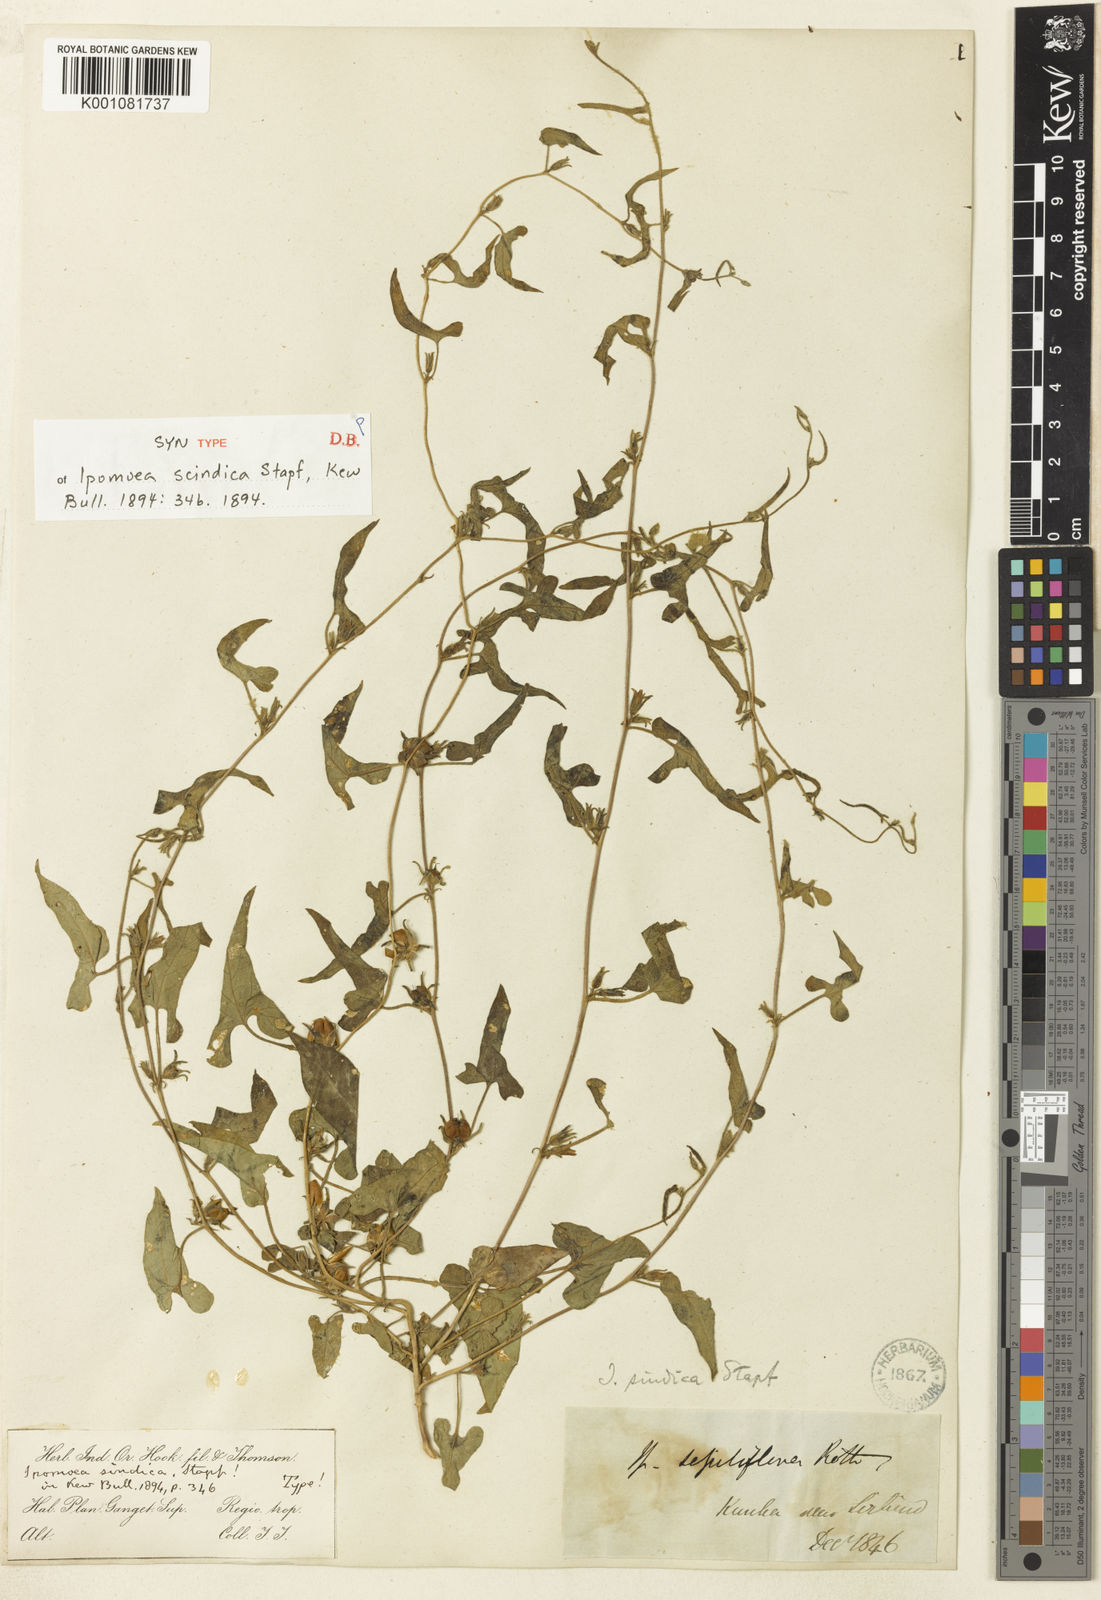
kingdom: Plantae
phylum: Tracheophyta
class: Magnoliopsida
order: Solanales
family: Convolvulaceae
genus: Ipomoea
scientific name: Ipomoea eriocarpa
